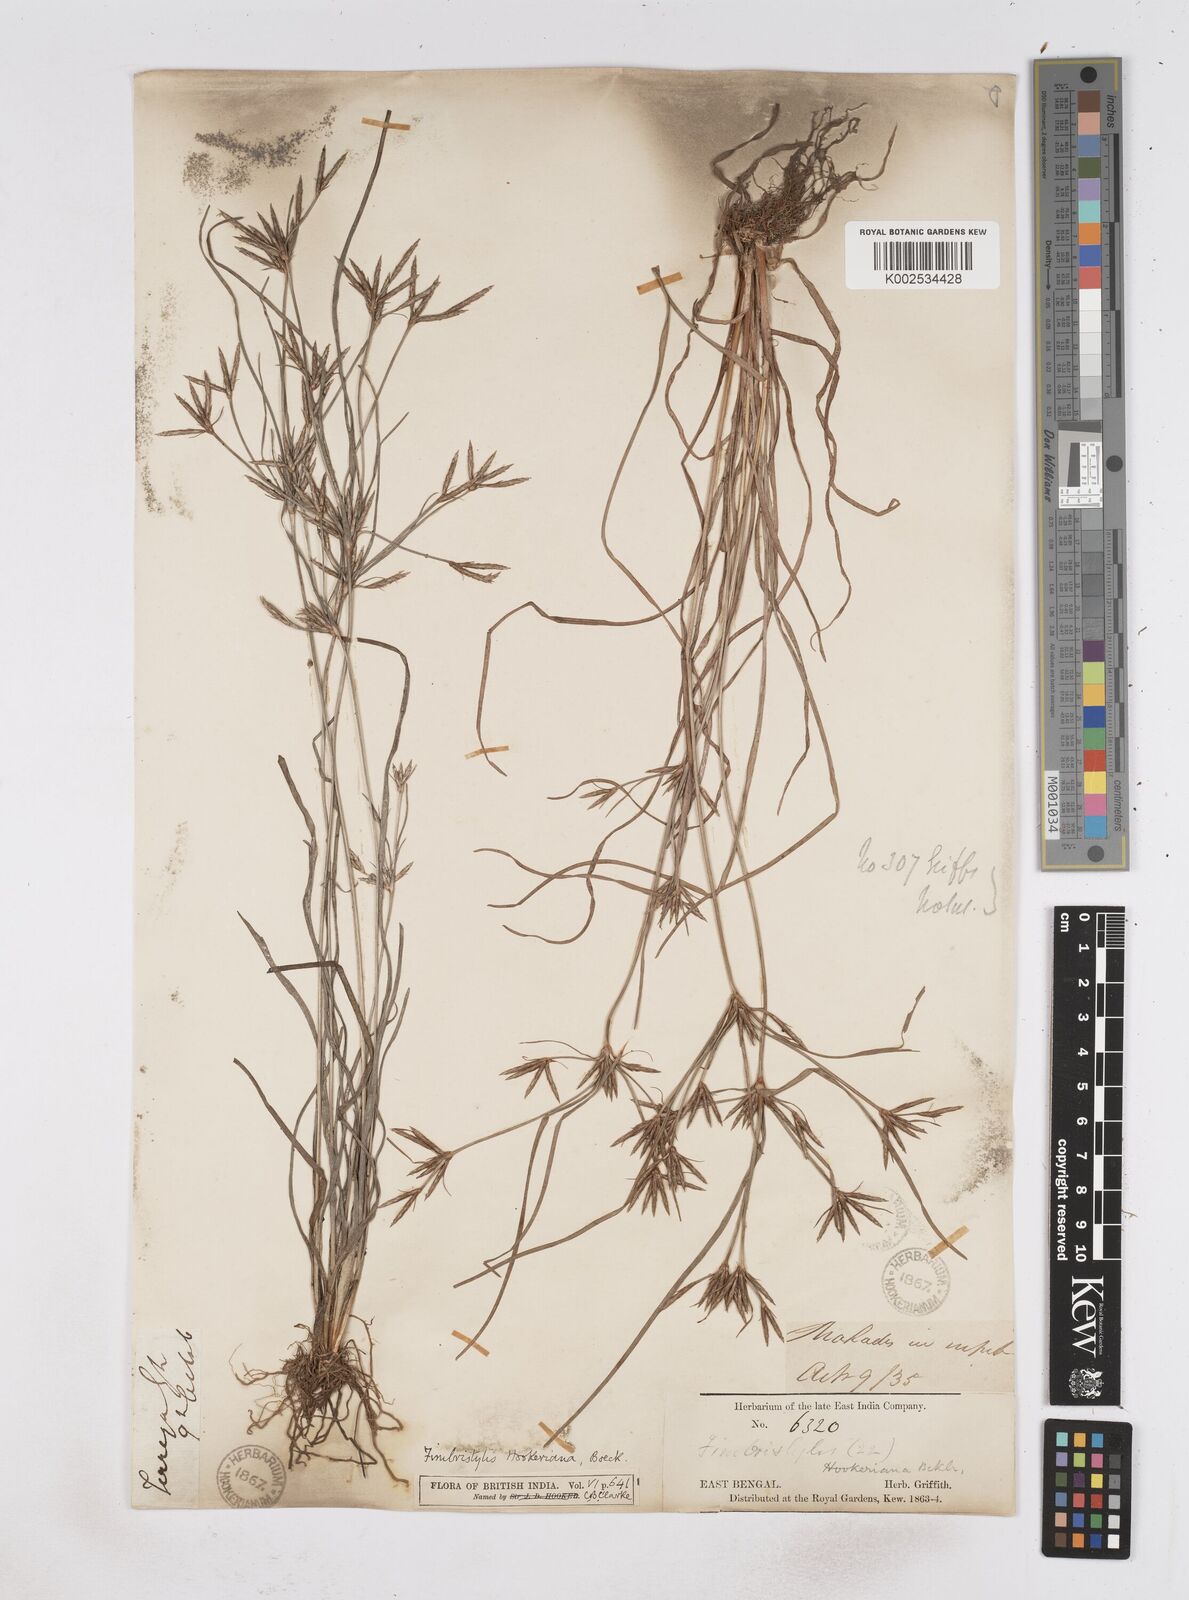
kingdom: Plantae
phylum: Tracheophyta
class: Liliopsida
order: Poales
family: Cyperaceae
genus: Fimbristylis
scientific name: Fimbristylis hookeriana
